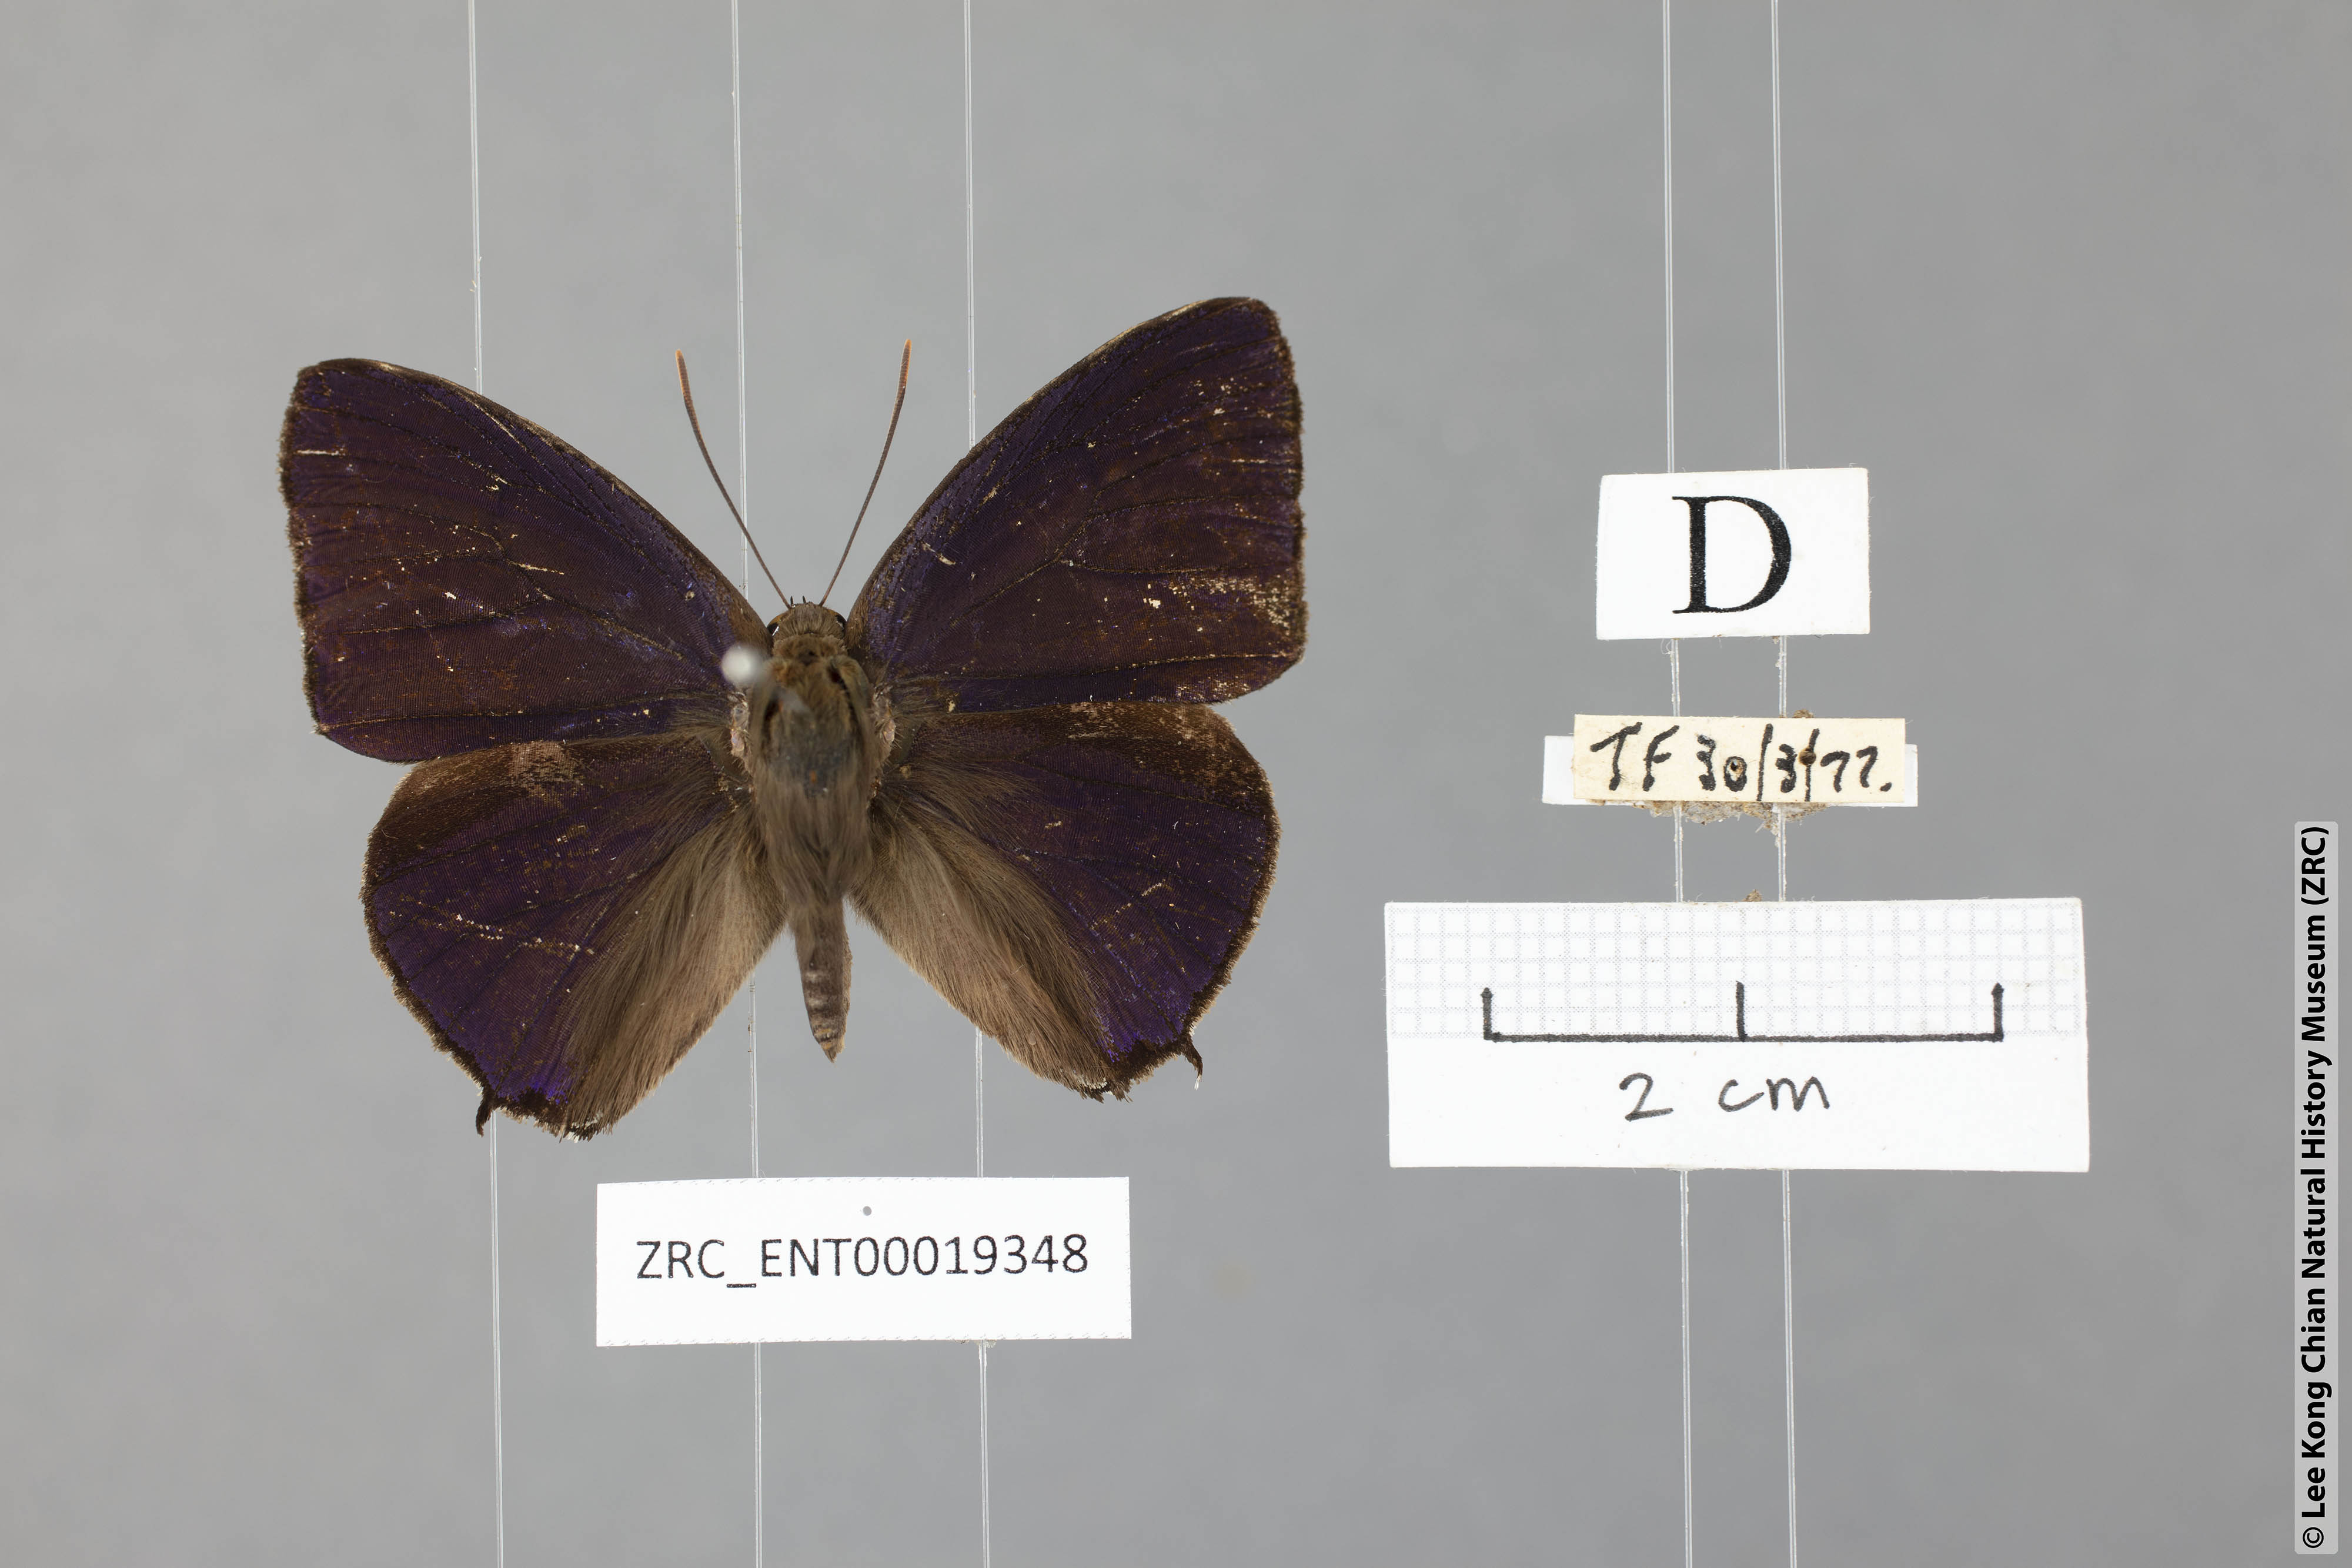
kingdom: Animalia
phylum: Arthropoda
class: Insecta
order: Lepidoptera
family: Lycaenidae
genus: Arhopala
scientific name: Arhopala corinda
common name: Ultramarine oakblue
